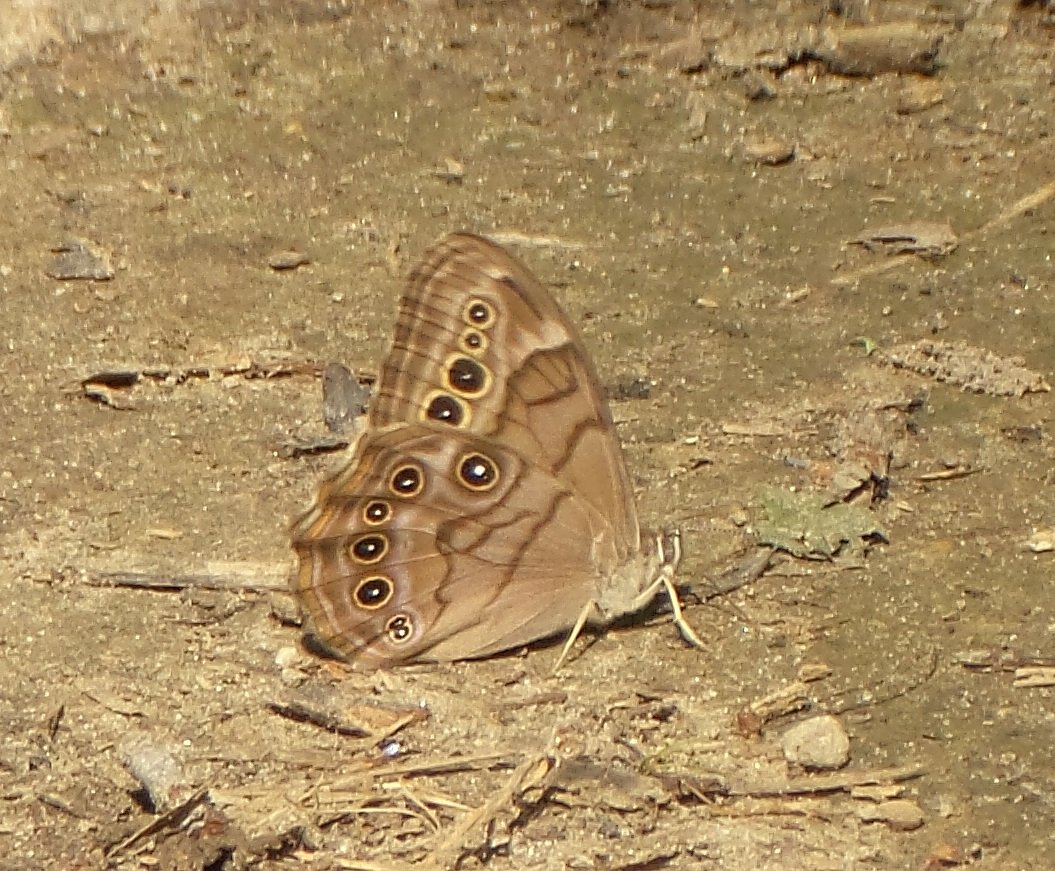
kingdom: Animalia
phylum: Arthropoda
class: Insecta
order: Lepidoptera
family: Nymphalidae
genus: Lethe
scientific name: Lethe anthedon
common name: Northern Pearly-Eye
